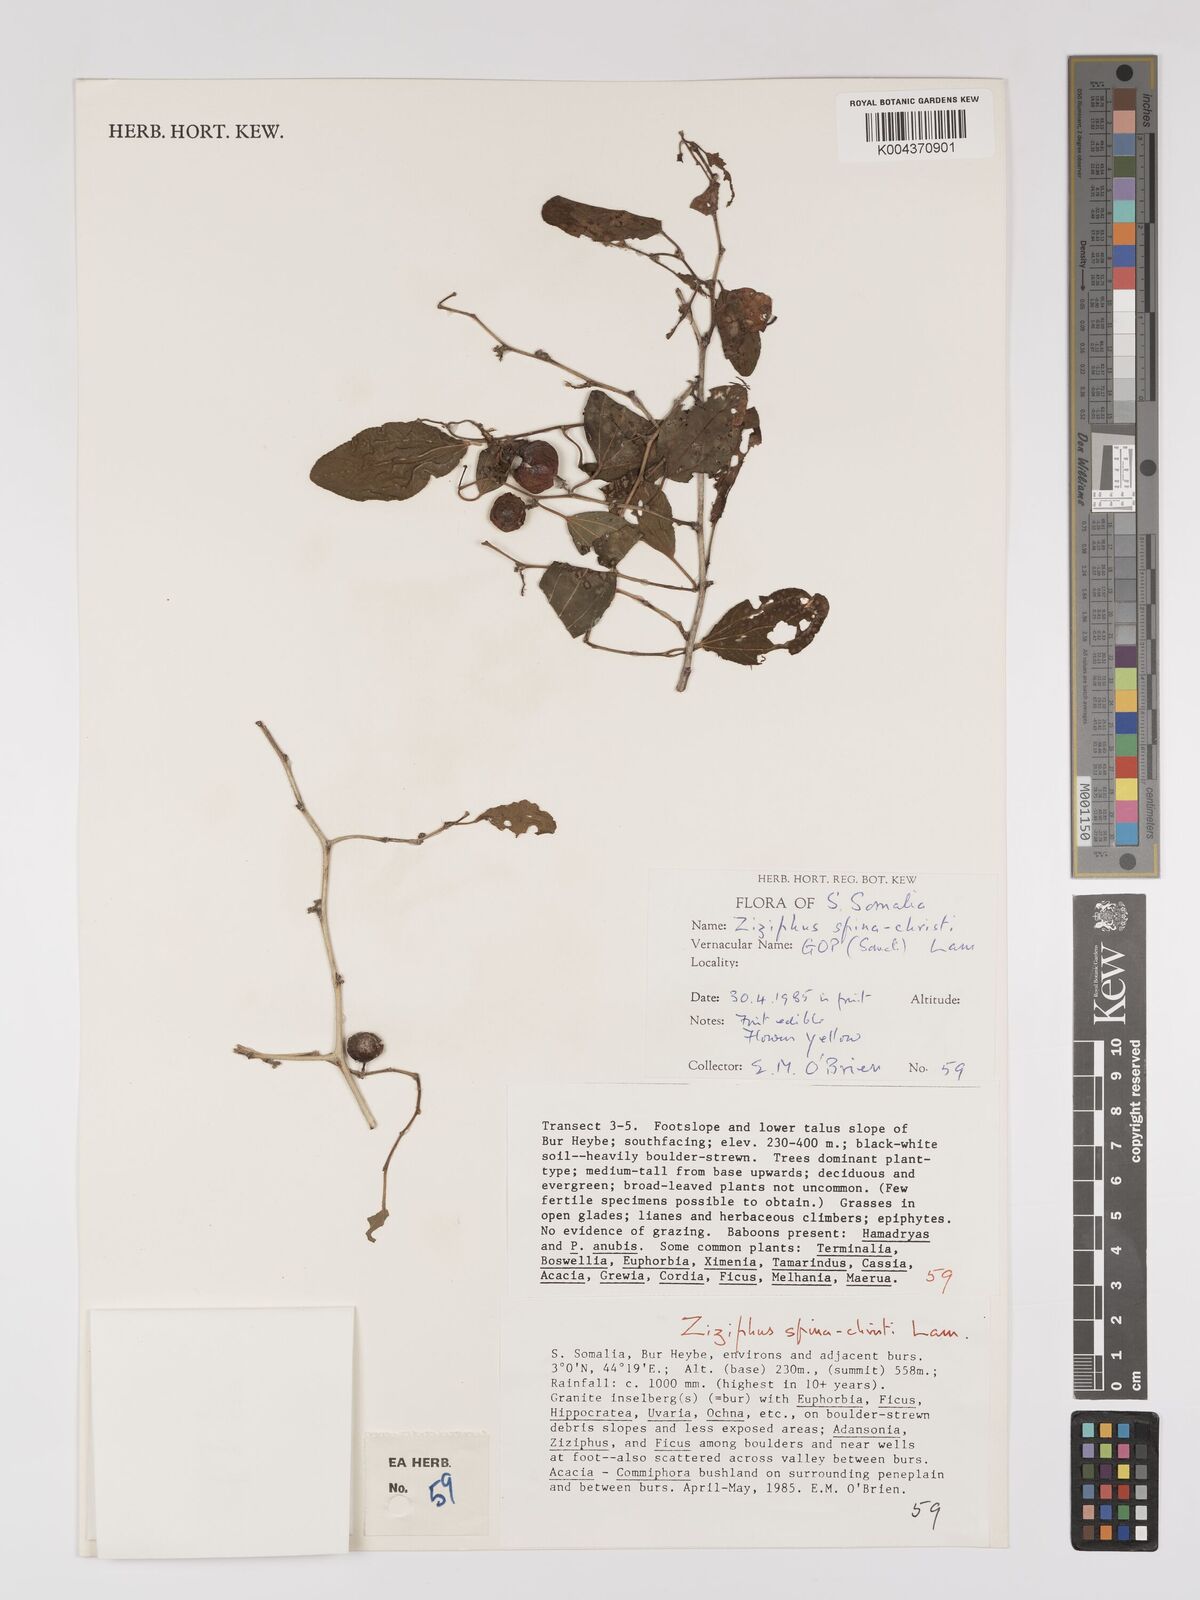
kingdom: Plantae
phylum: Tracheophyta
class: Magnoliopsida
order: Rosales
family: Rhamnaceae
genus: Ziziphus
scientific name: Ziziphus spina-christi
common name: Syrian christ-thorn
